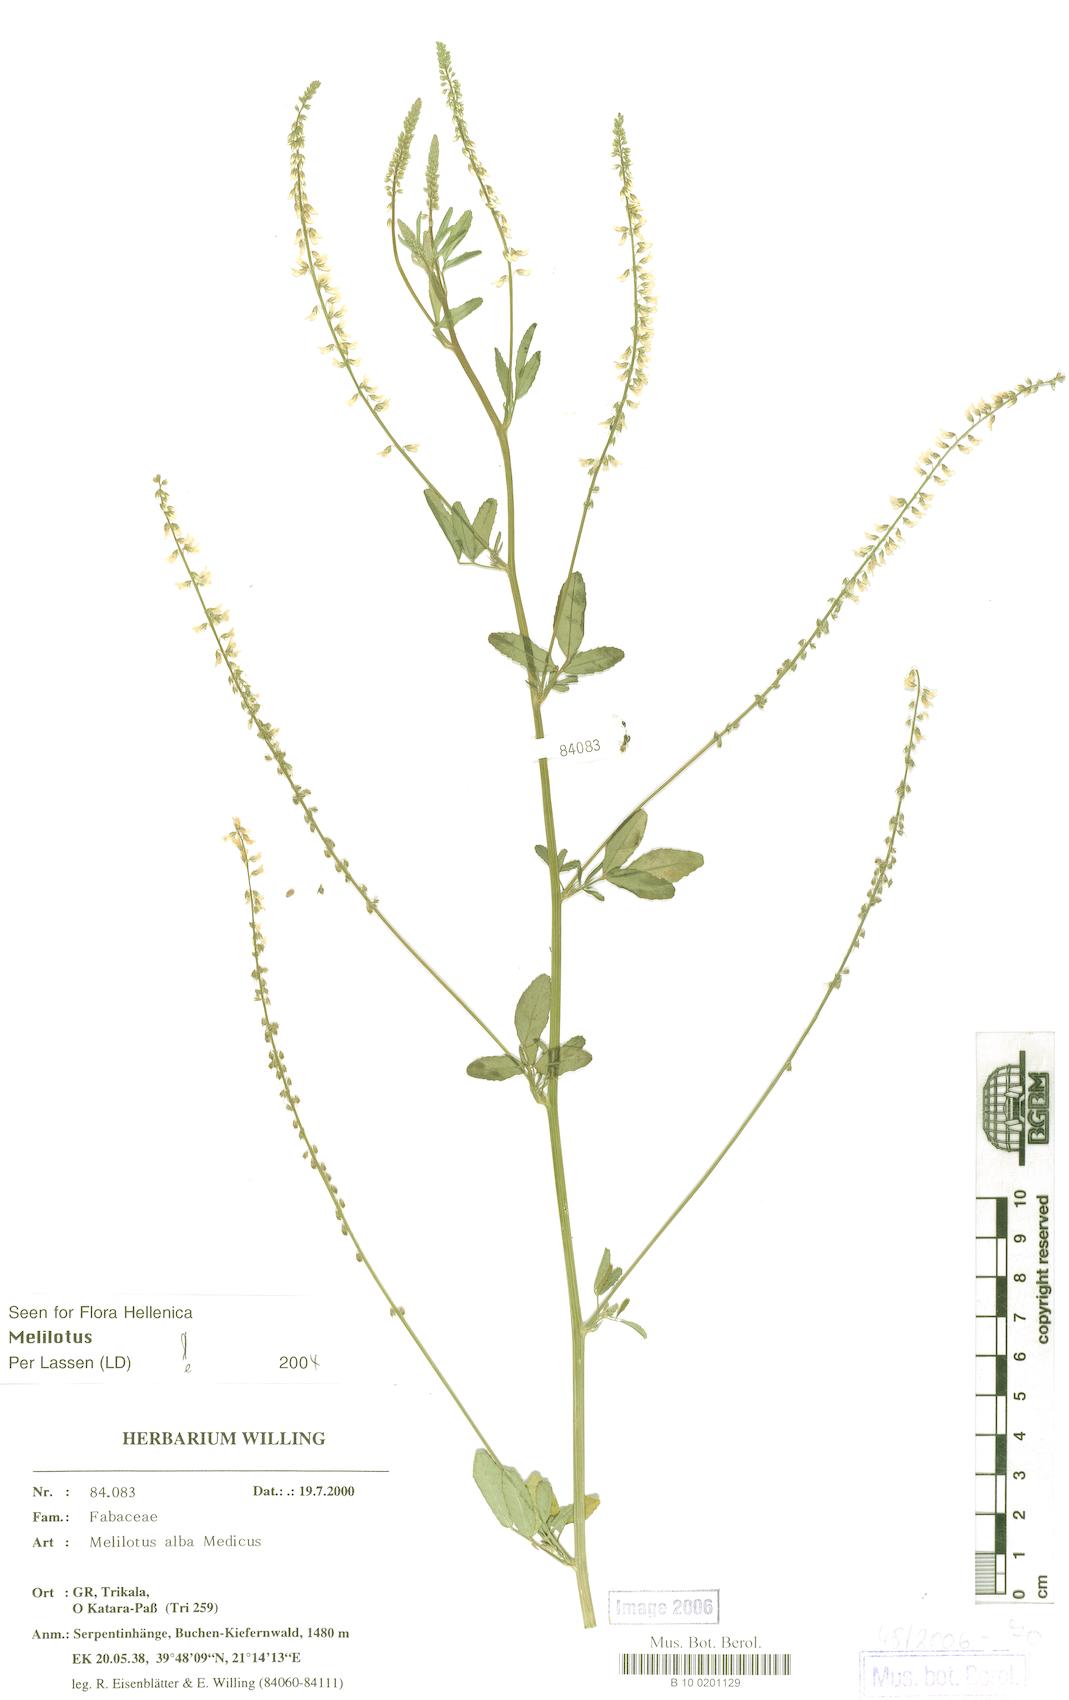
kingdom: Plantae
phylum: Tracheophyta
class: Magnoliopsida
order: Fabales
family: Fabaceae
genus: Melilotus
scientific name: Melilotus albus
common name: White melilot
